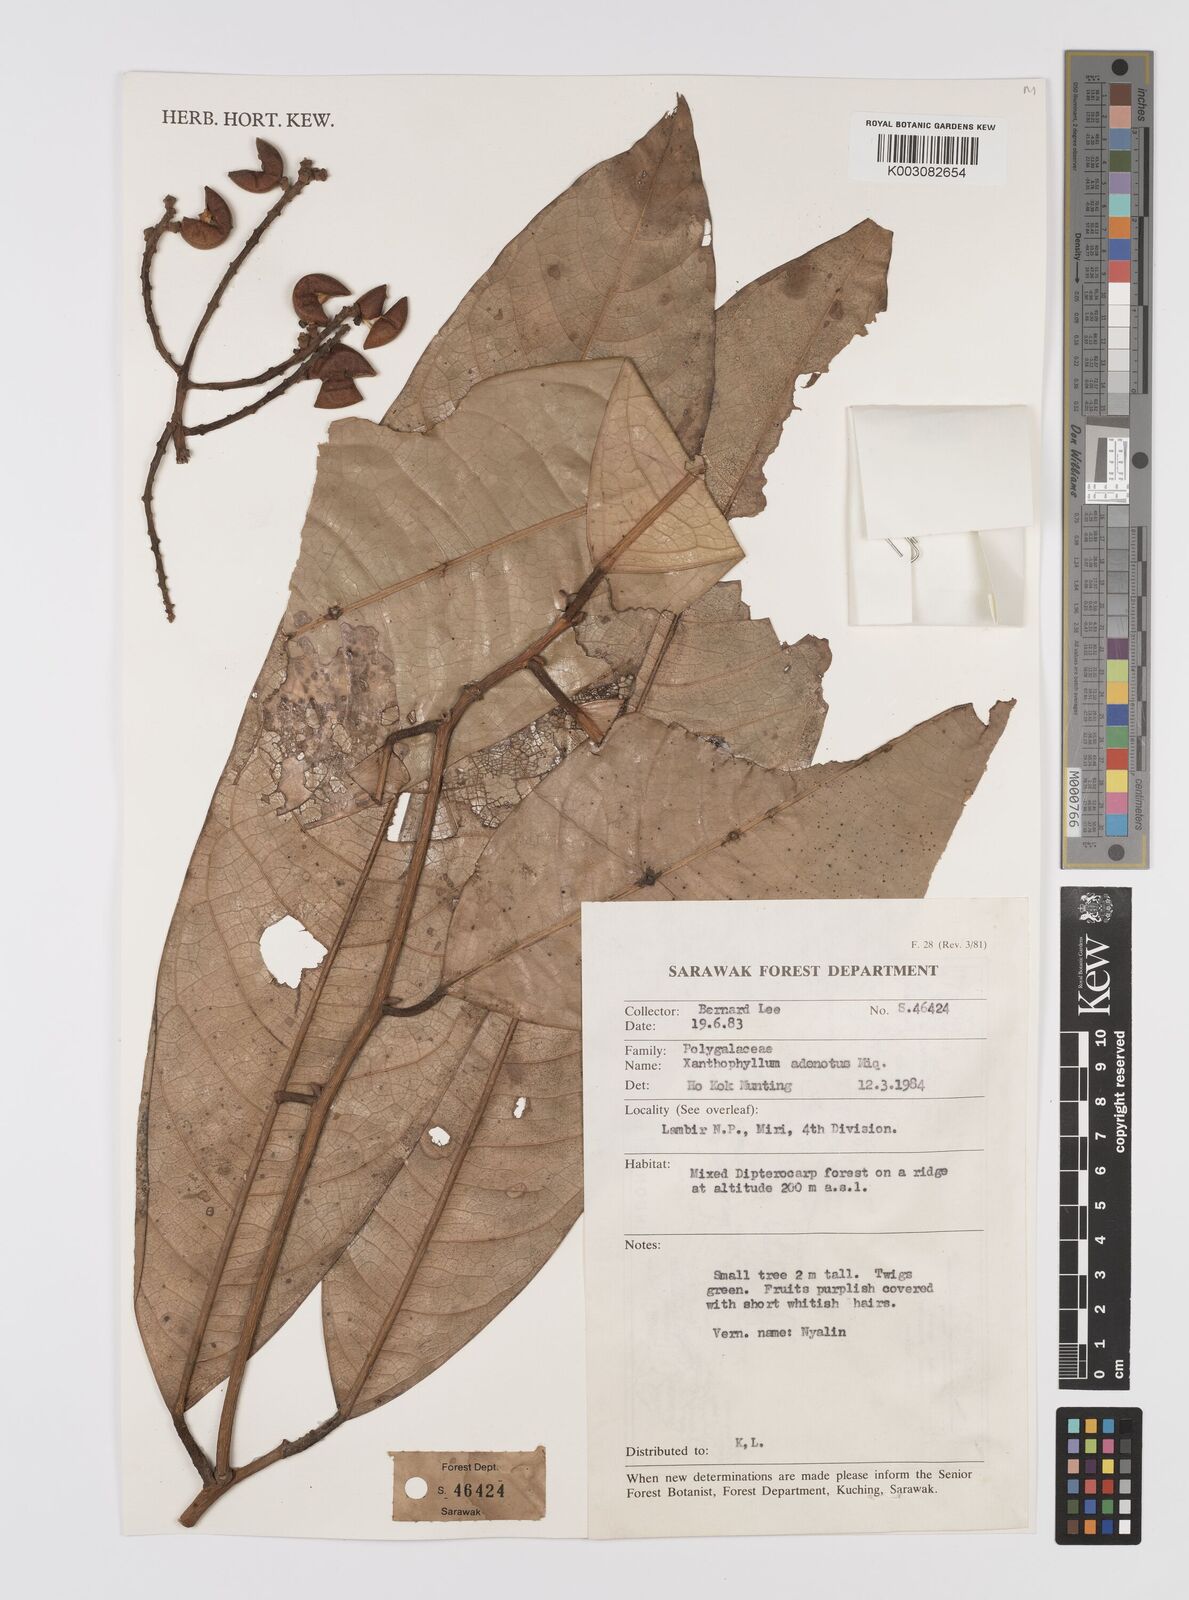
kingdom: Plantae
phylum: Tracheophyta
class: Magnoliopsida
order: Fabales
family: Polygalaceae
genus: Xanthophyllum
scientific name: Xanthophyllum adenotus
